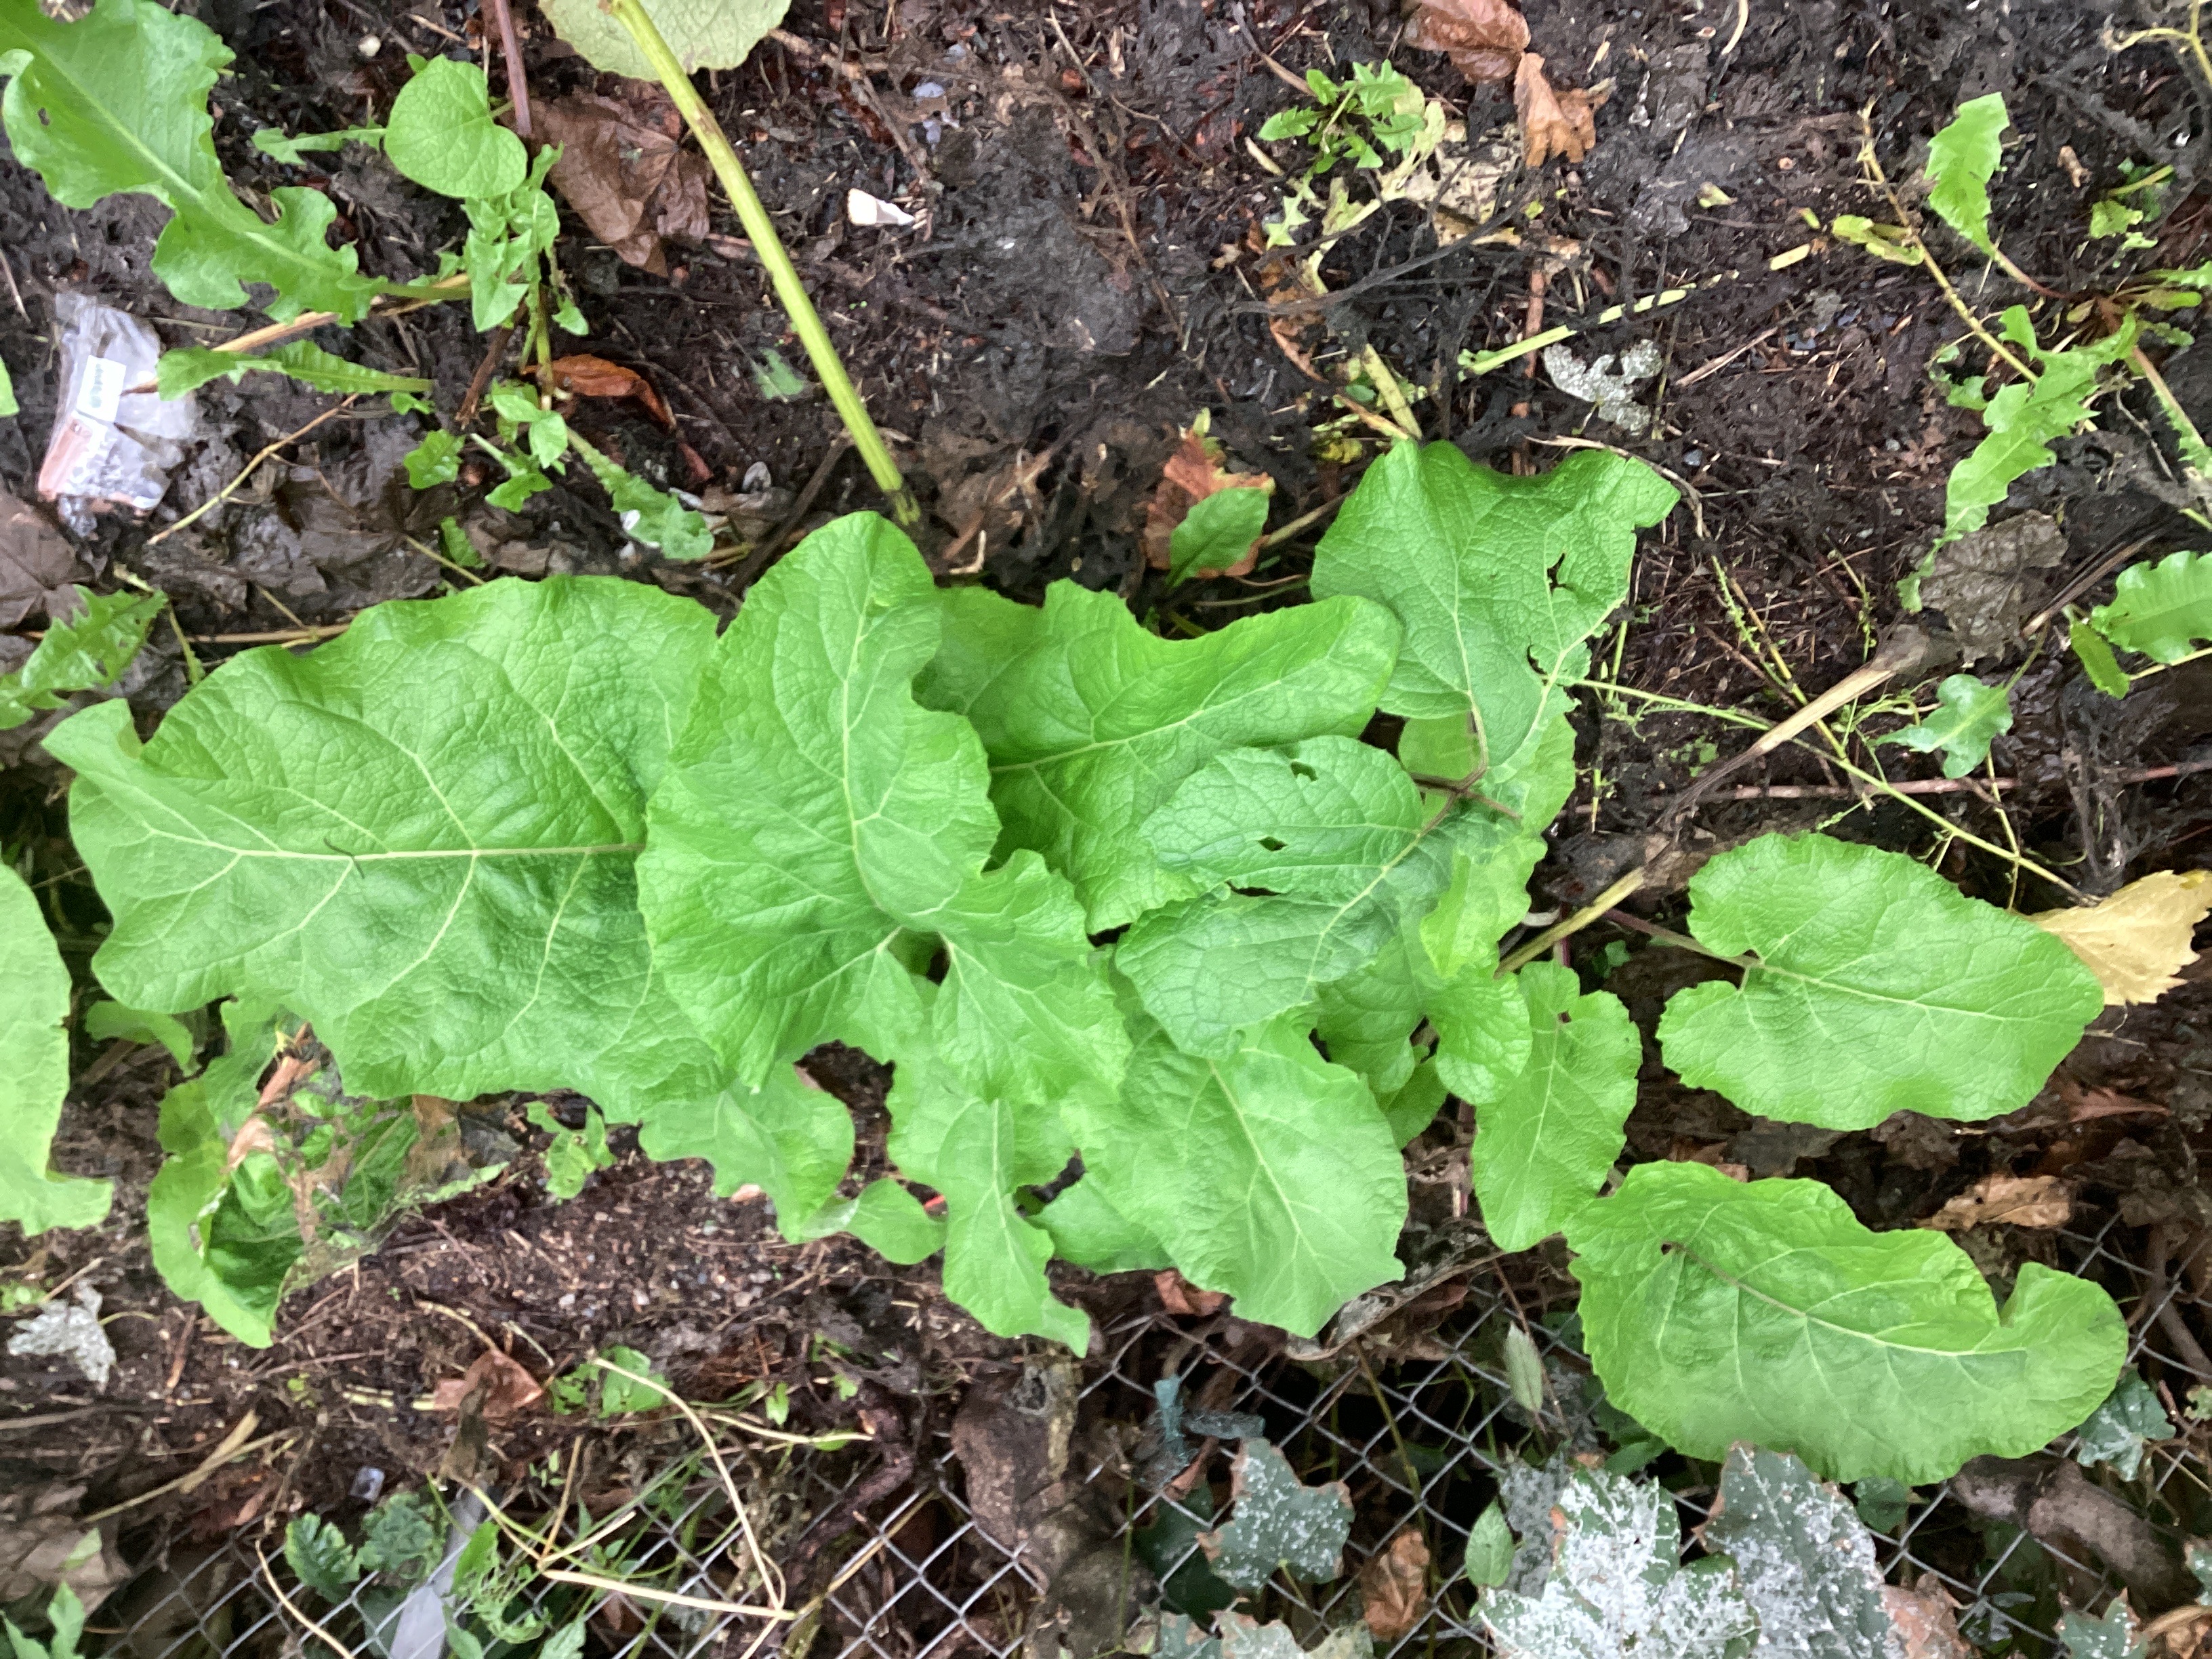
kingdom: Plantae
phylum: Tracheophyta
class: Magnoliopsida
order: Asterales
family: Asteraceae
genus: Arctium
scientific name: Arctium tomentosum
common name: ullborre
